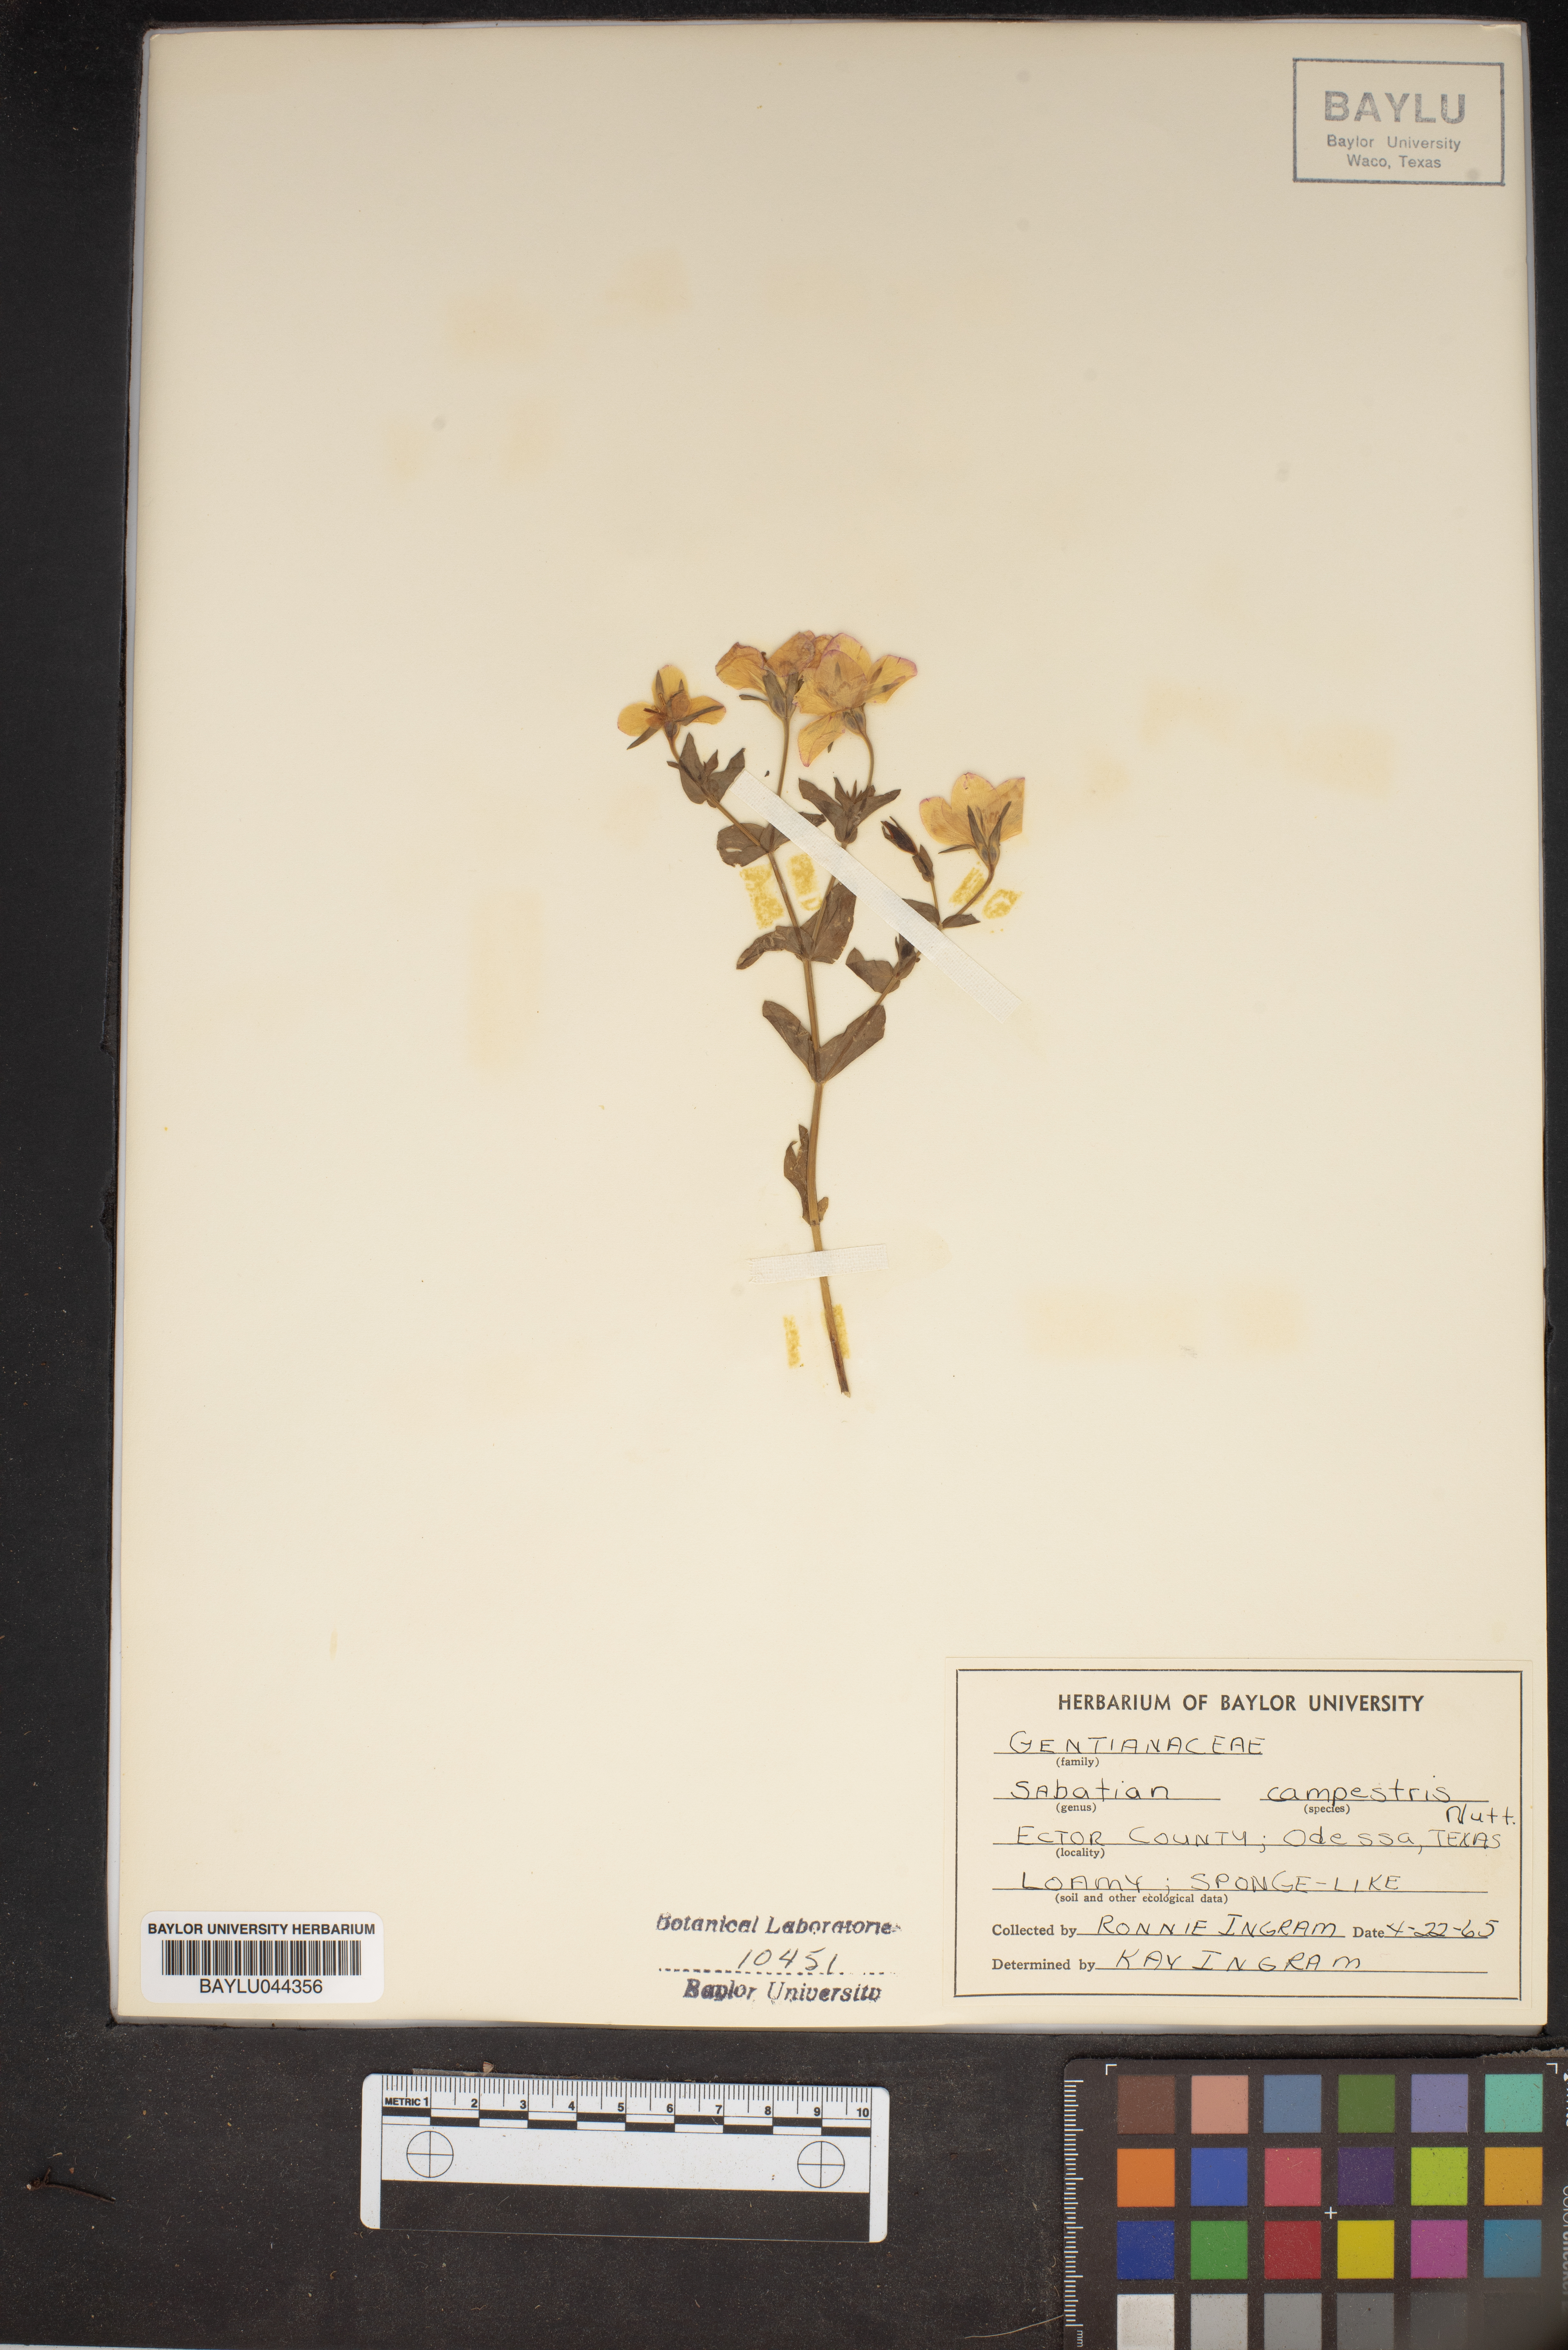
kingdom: Plantae
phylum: Tracheophyta
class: Magnoliopsida
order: Gentianales
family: Gentianaceae
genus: Sabatia
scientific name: Sabatia campestris
